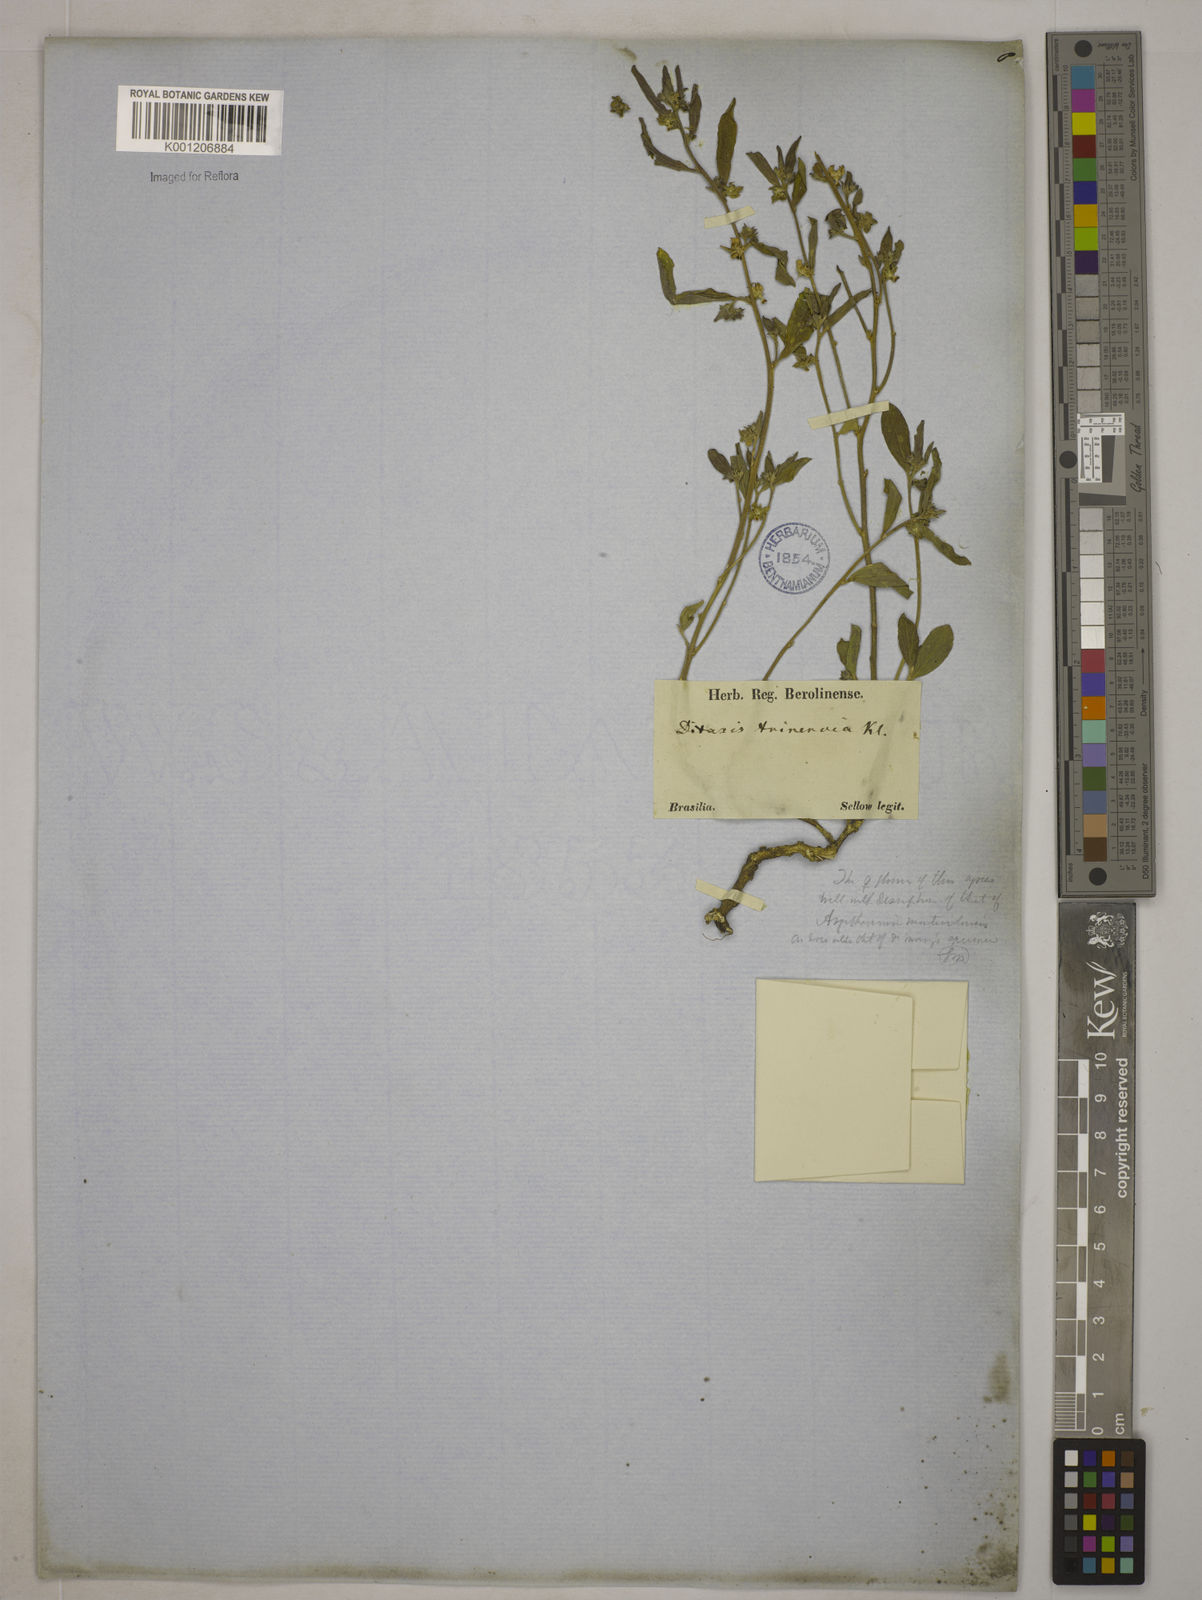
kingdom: Plantae
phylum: Tracheophyta
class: Magnoliopsida
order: Malpighiales
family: Euphorbiaceae
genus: Ditaxis
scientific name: Ditaxis montevidensis
